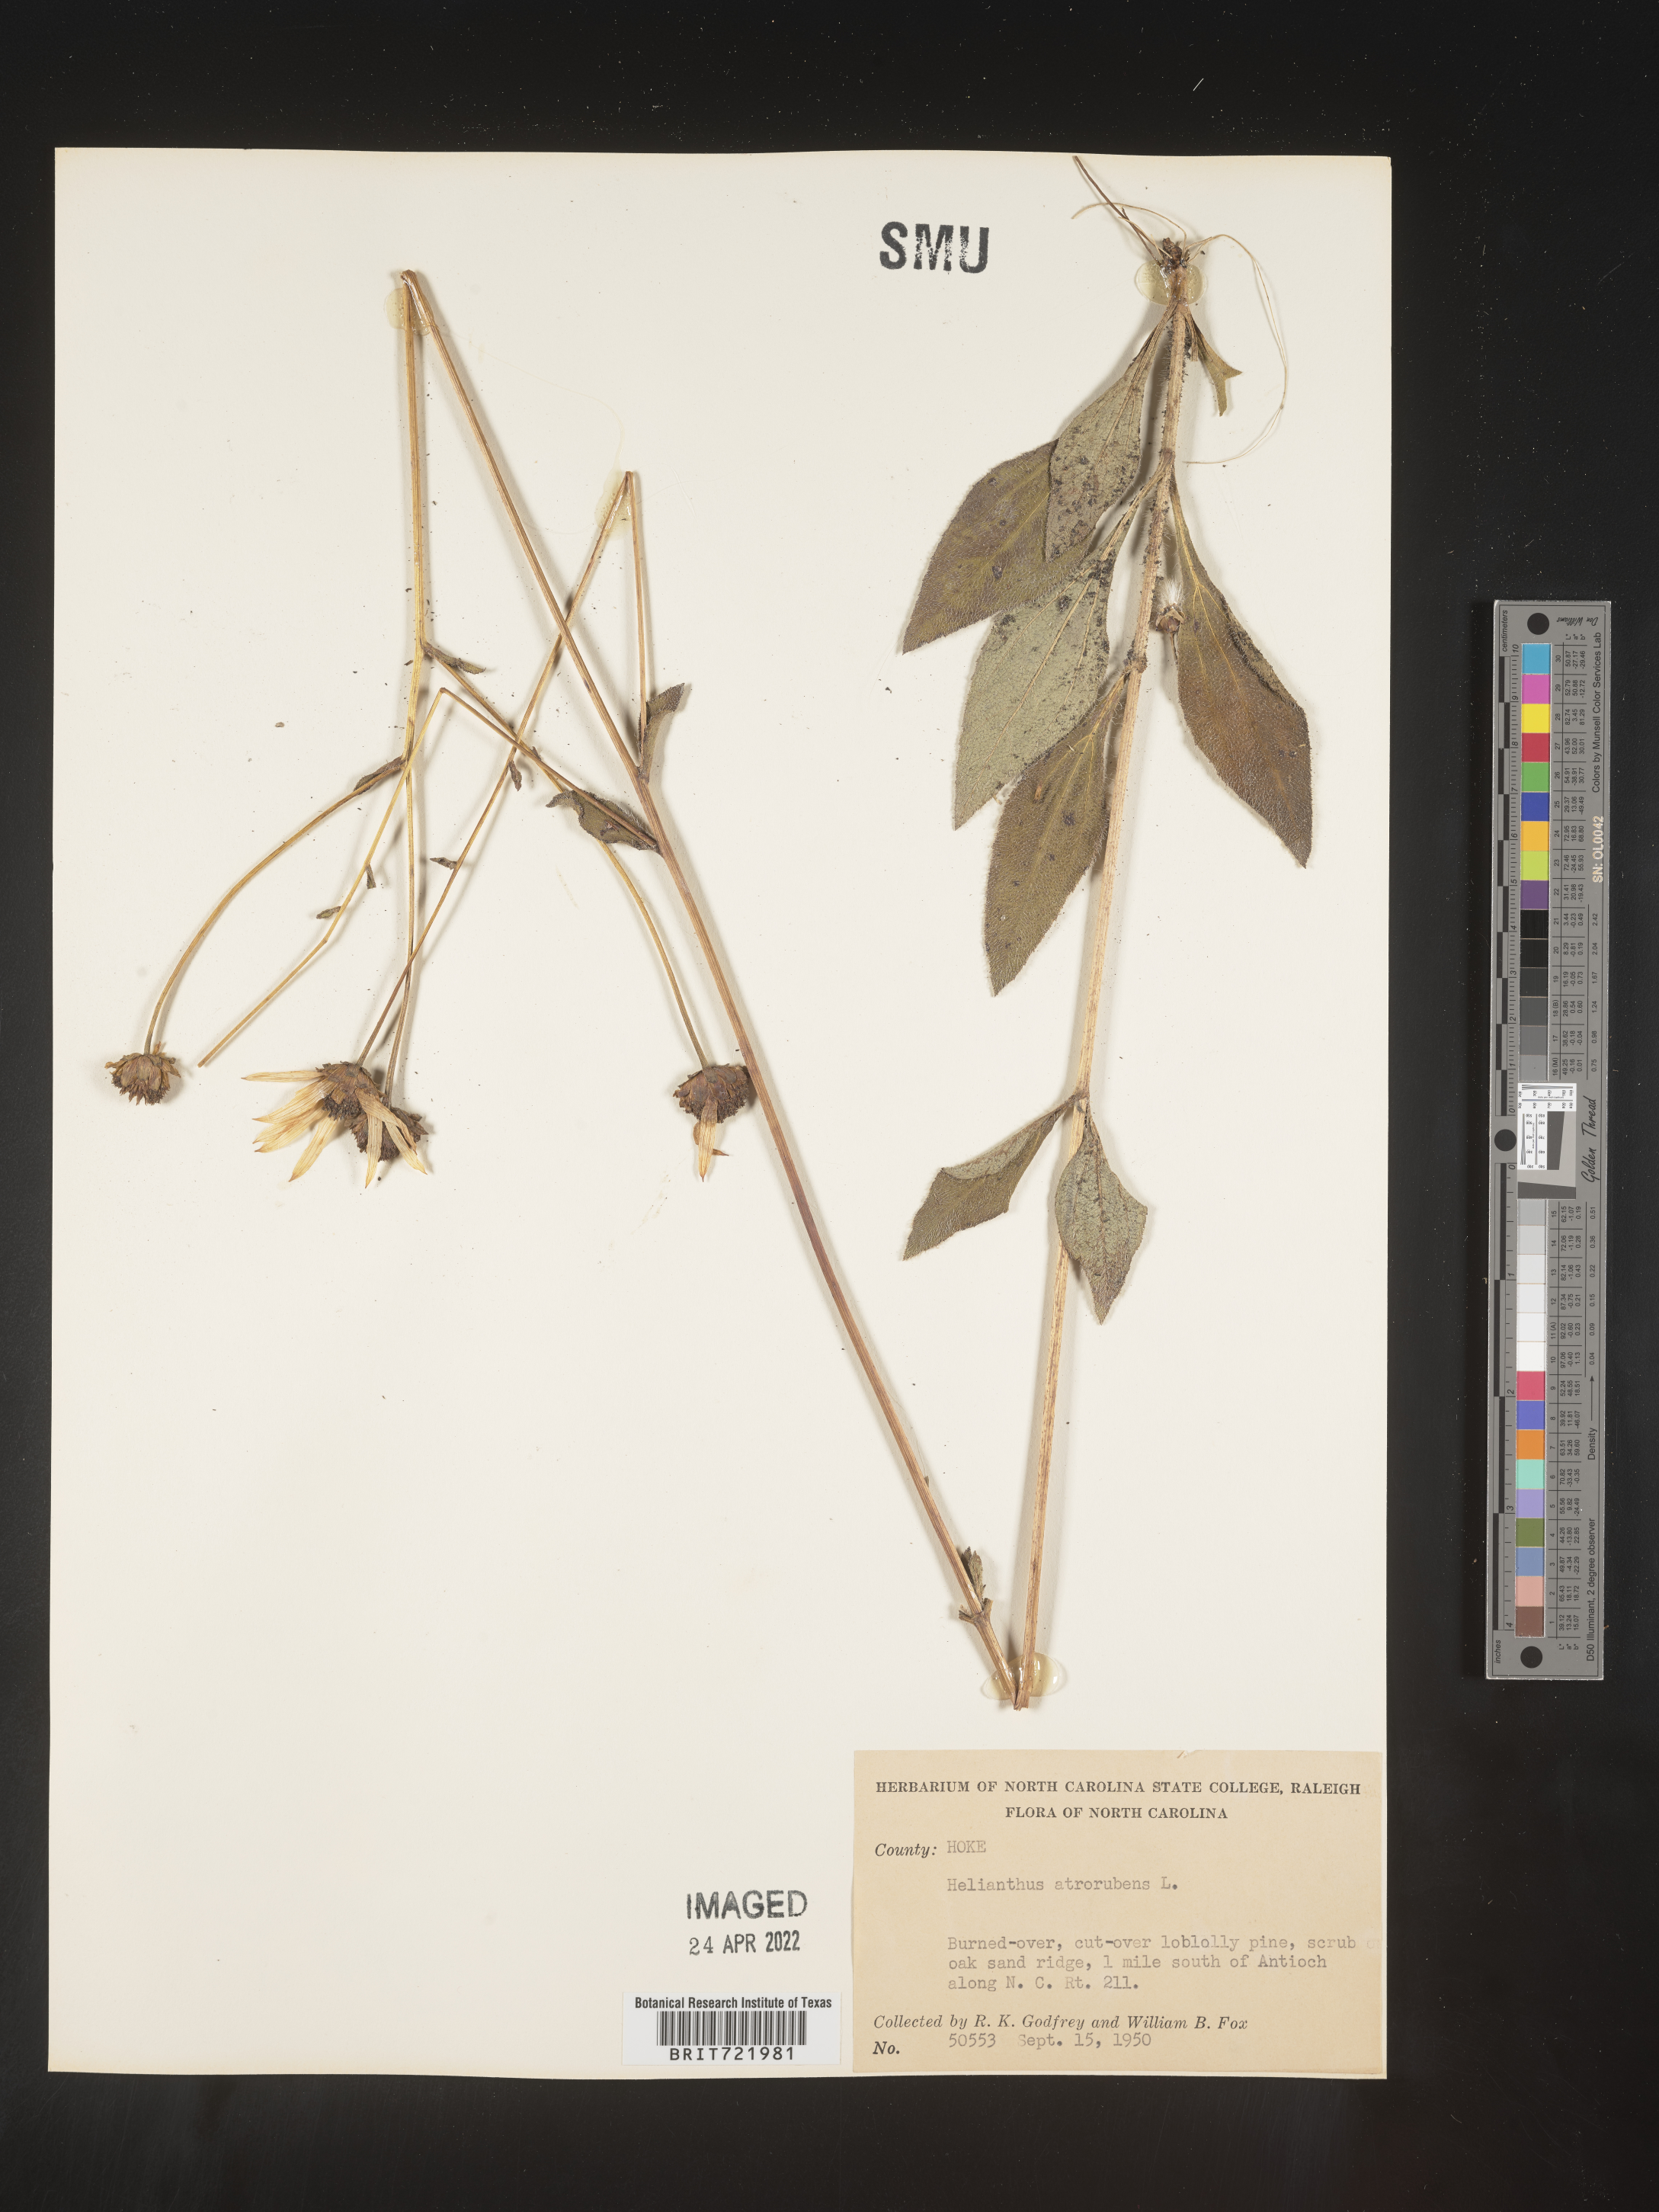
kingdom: Plantae
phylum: Tracheophyta
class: Magnoliopsida
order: Asterales
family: Asteraceae
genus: Helianthus
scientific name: Helianthus atrorubens
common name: Dark-eyed sunflower
